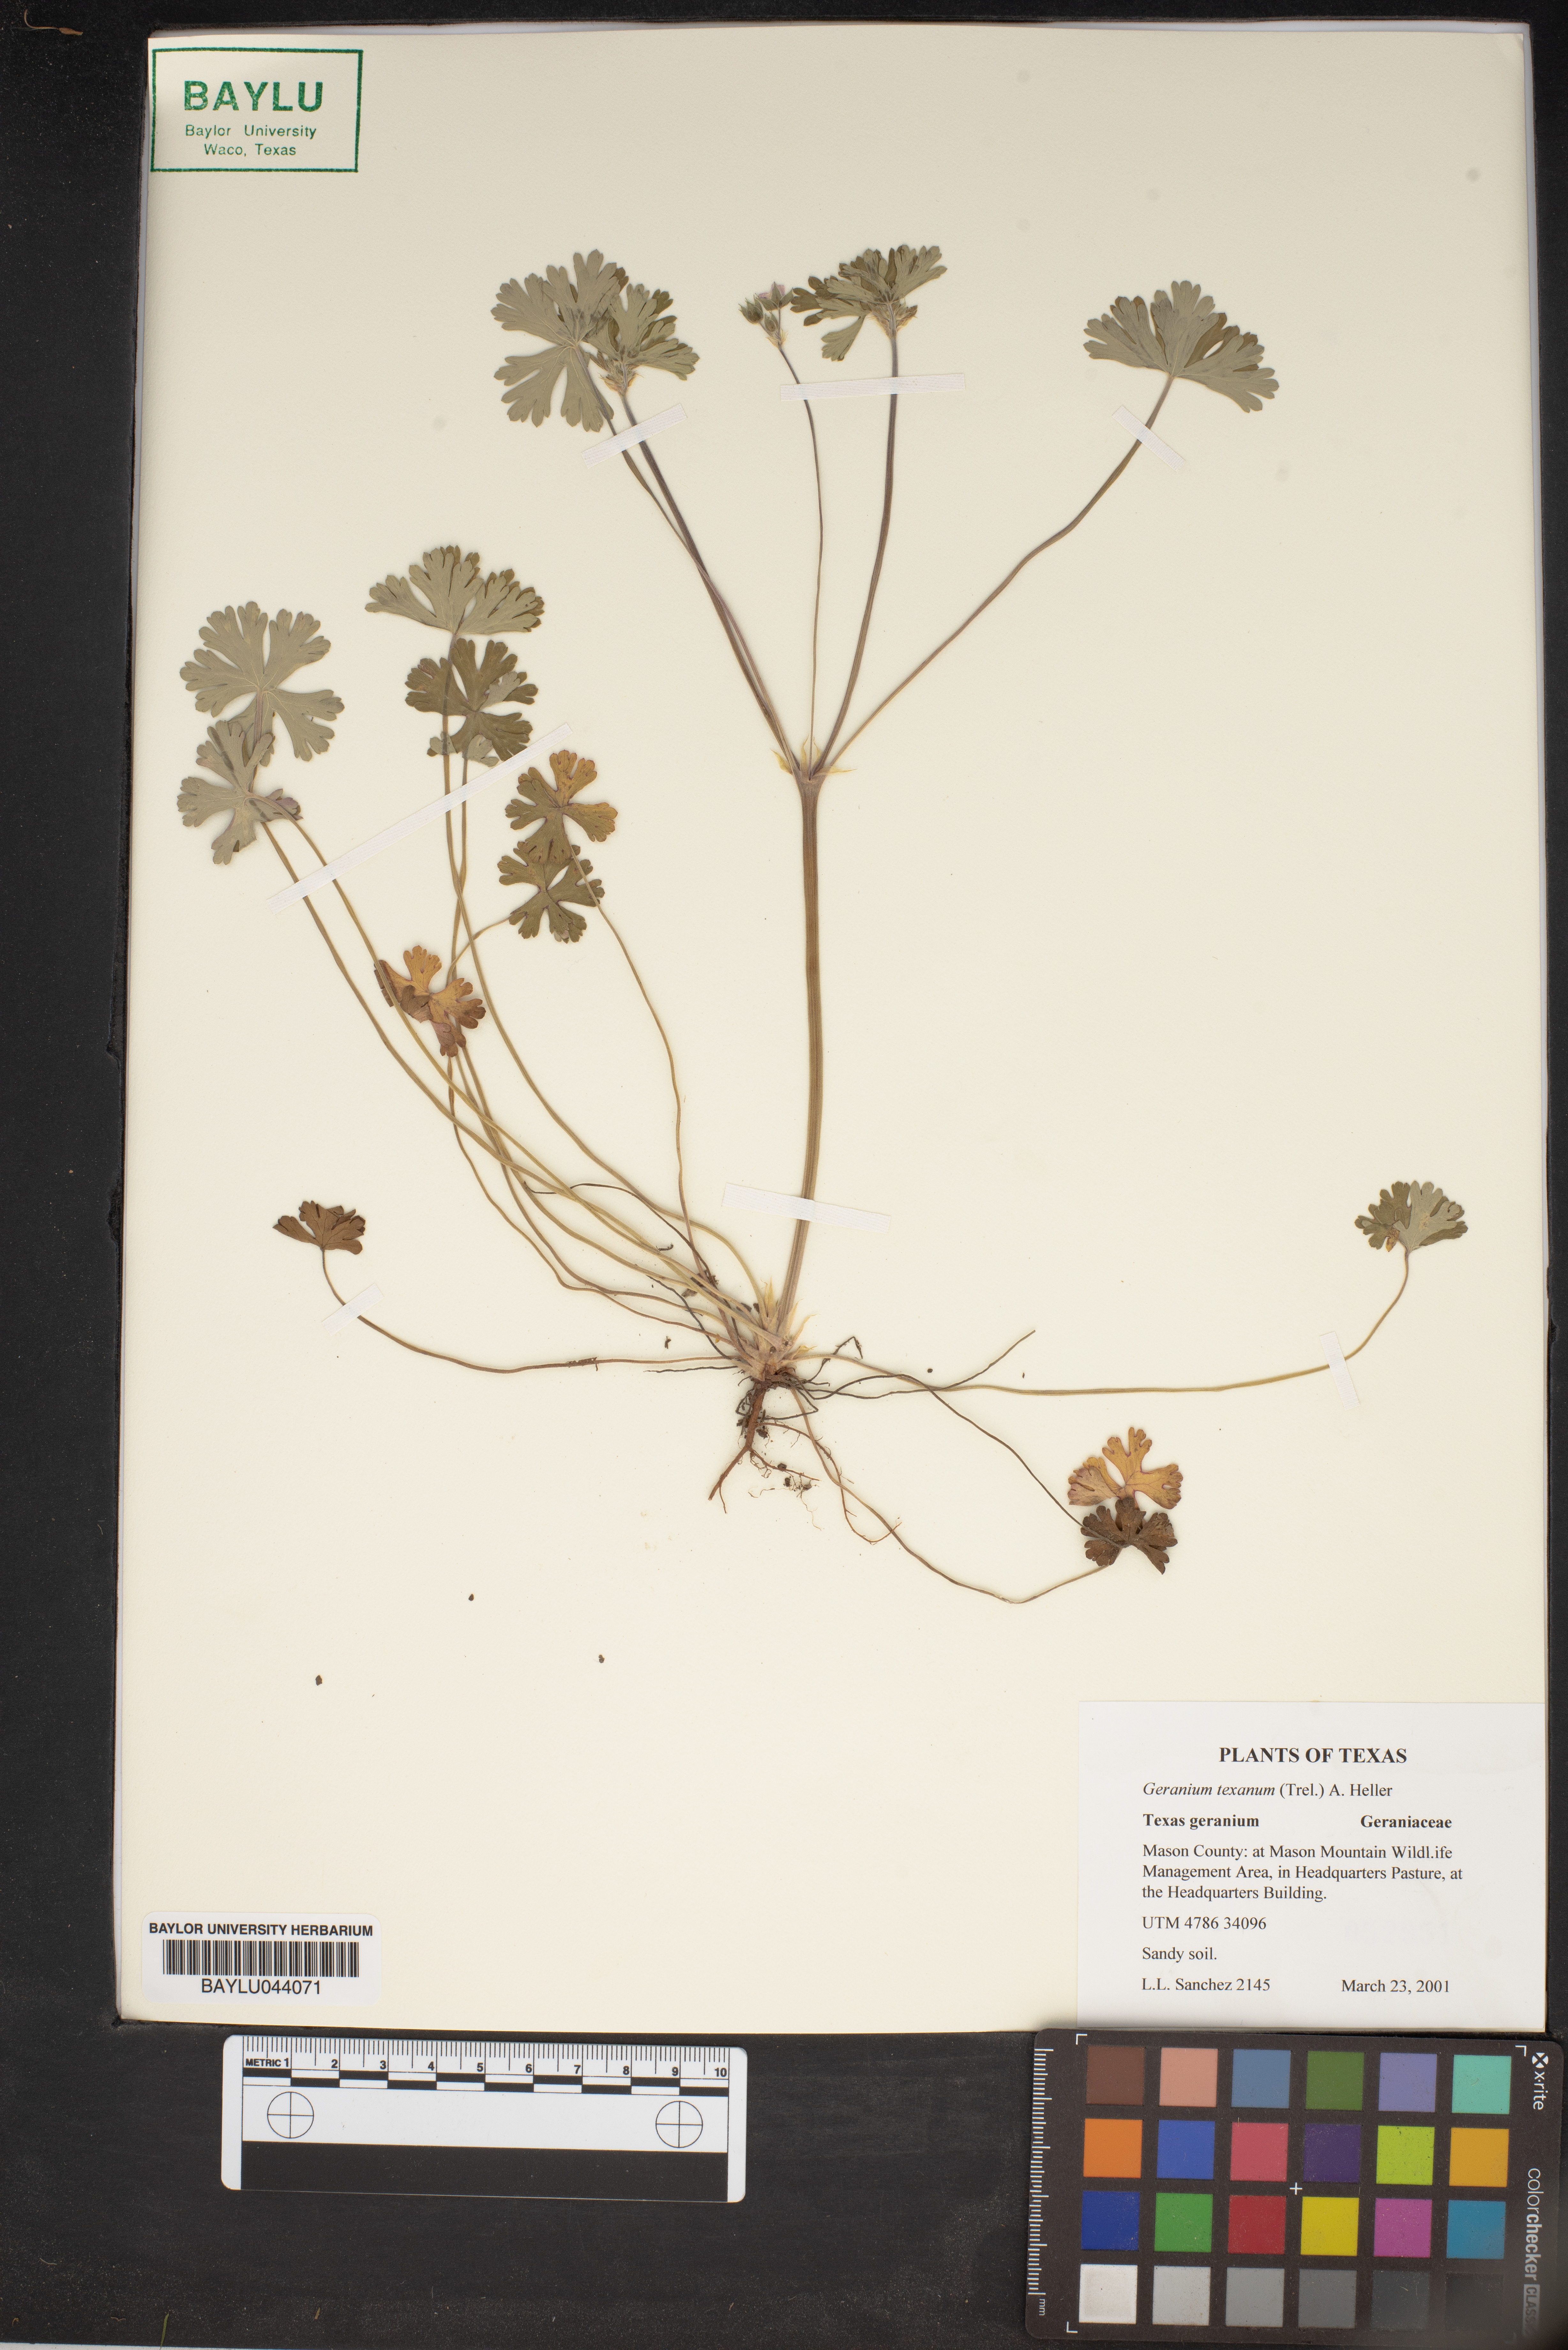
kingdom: Plantae
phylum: Tracheophyta
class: Magnoliopsida
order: Geraniales
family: Geraniaceae
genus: Geranium
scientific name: Geranium texanum
